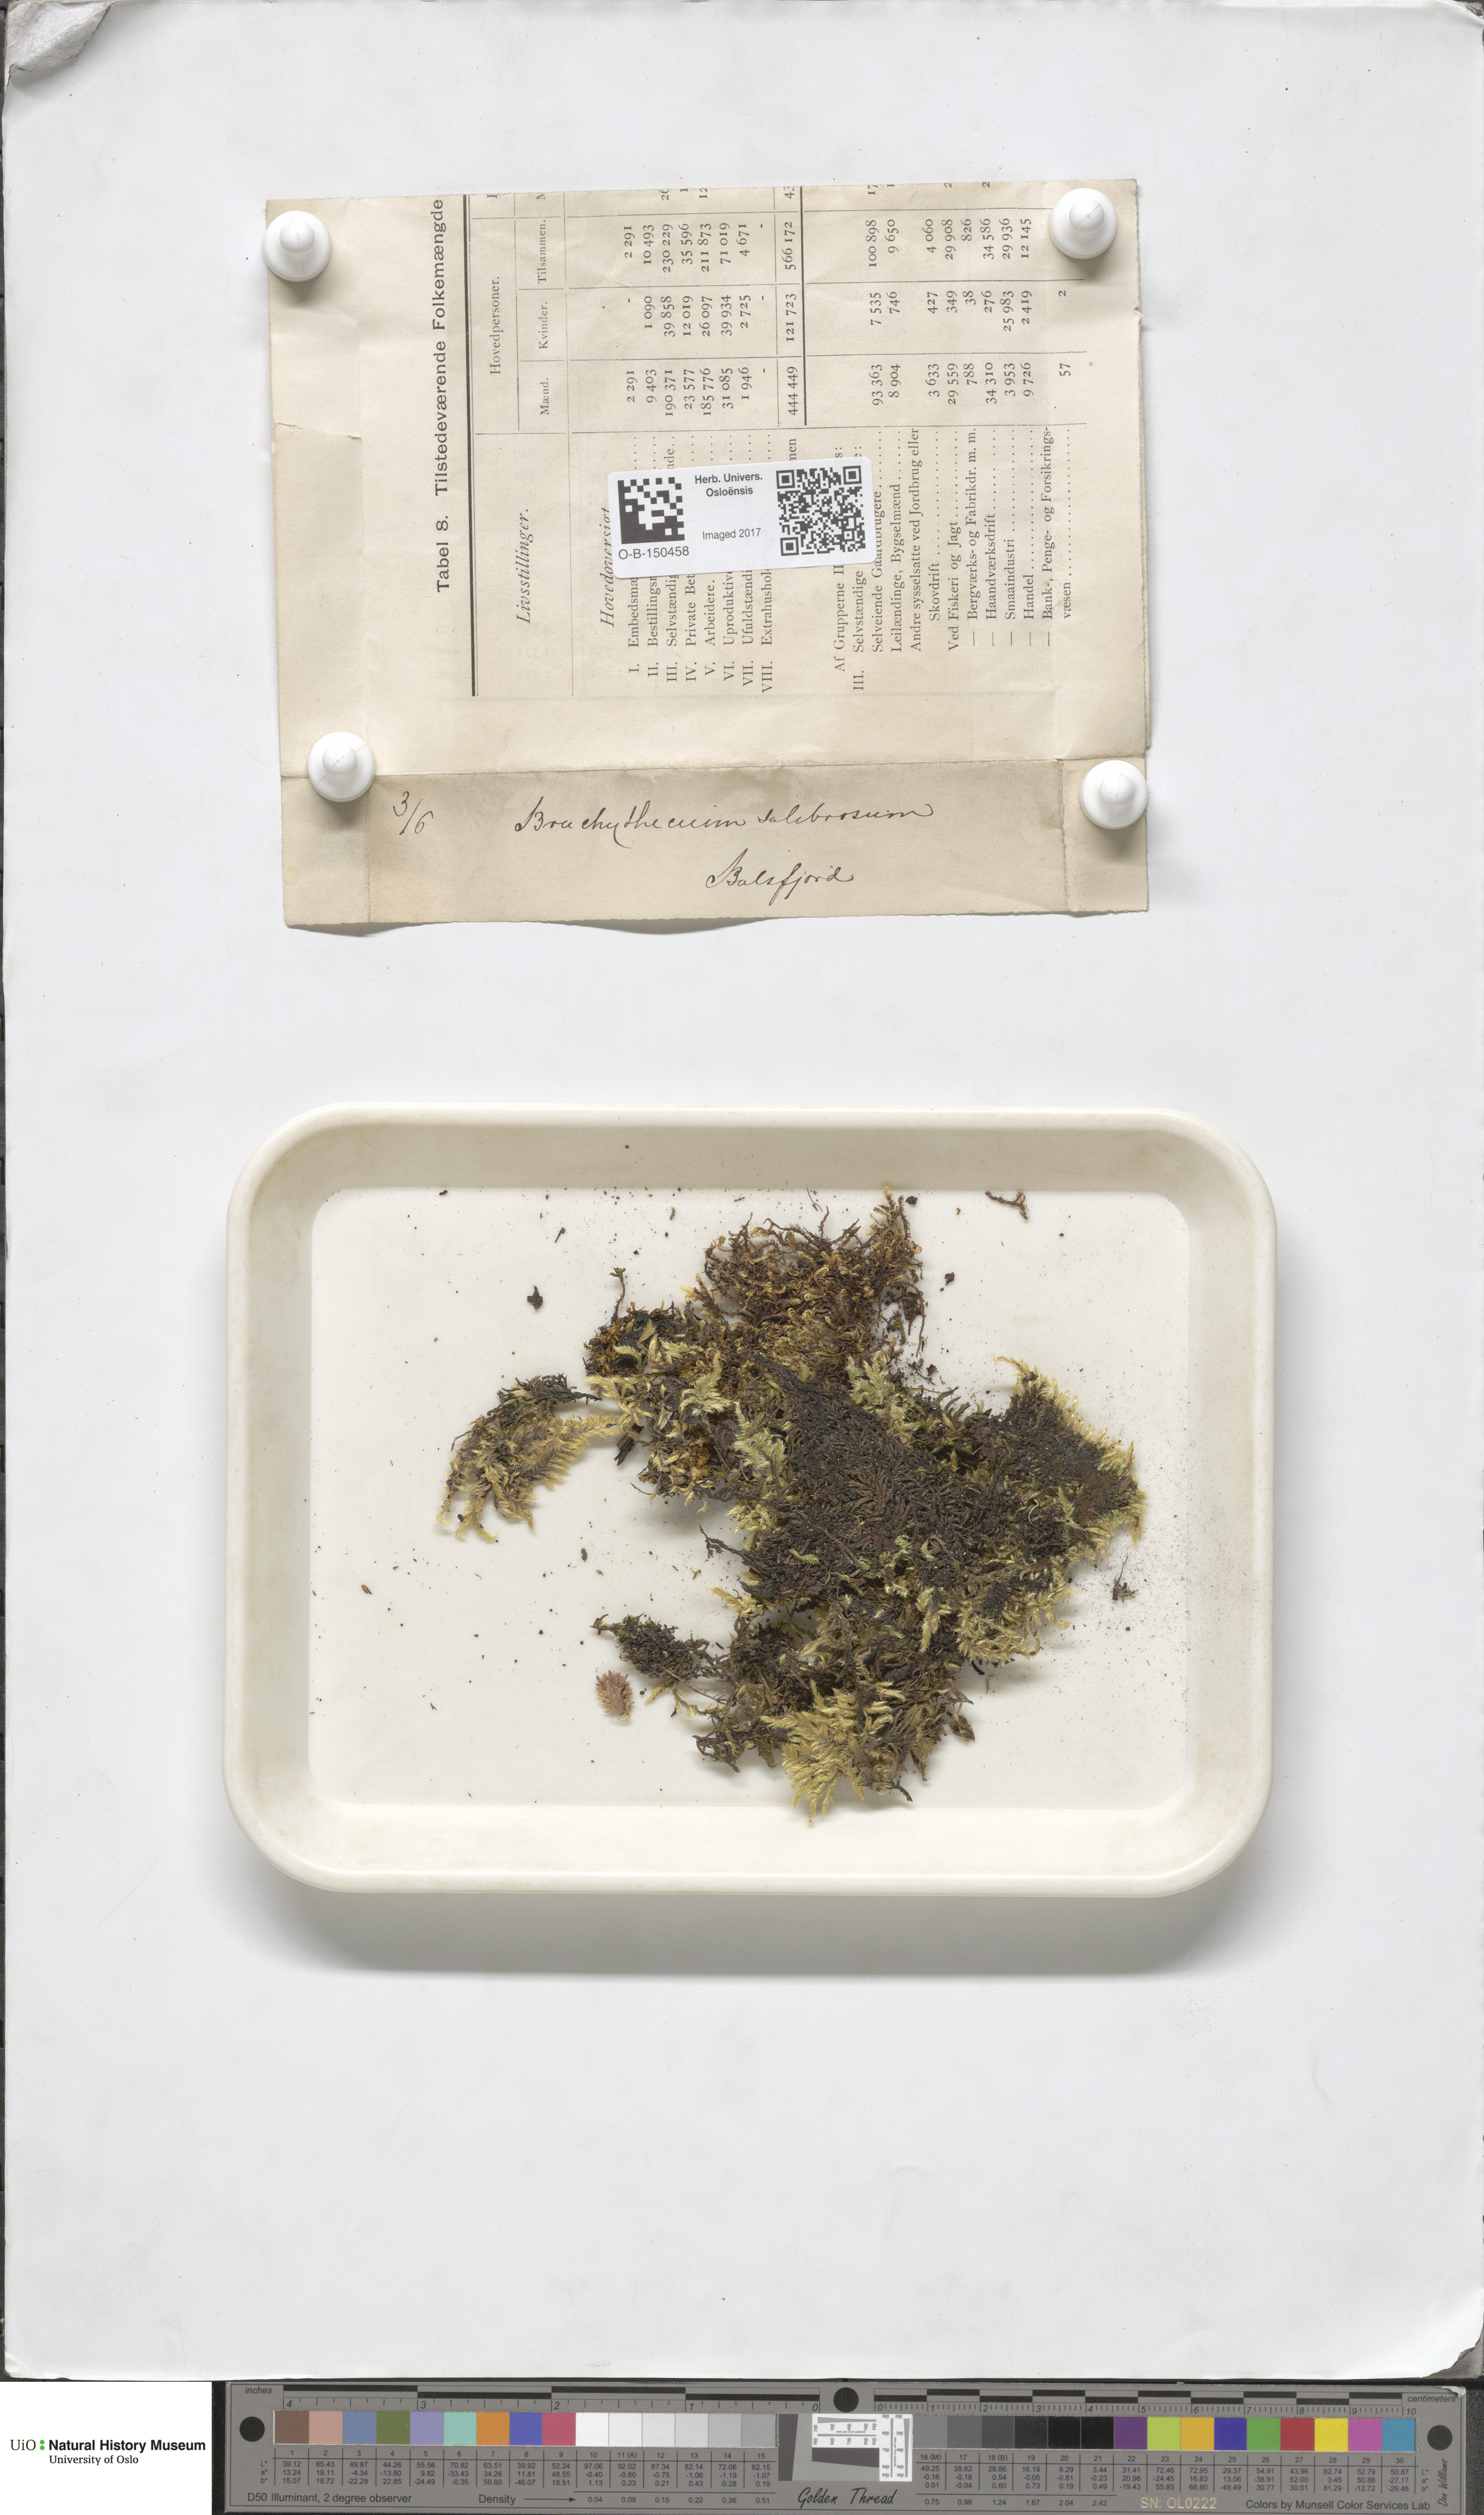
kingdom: Plantae
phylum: Bryophyta
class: Bryopsida
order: Hypnales
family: Brachytheciaceae
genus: Brachythecium
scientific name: Brachythecium salebrosum
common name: Smooth-stalk feather-moss
